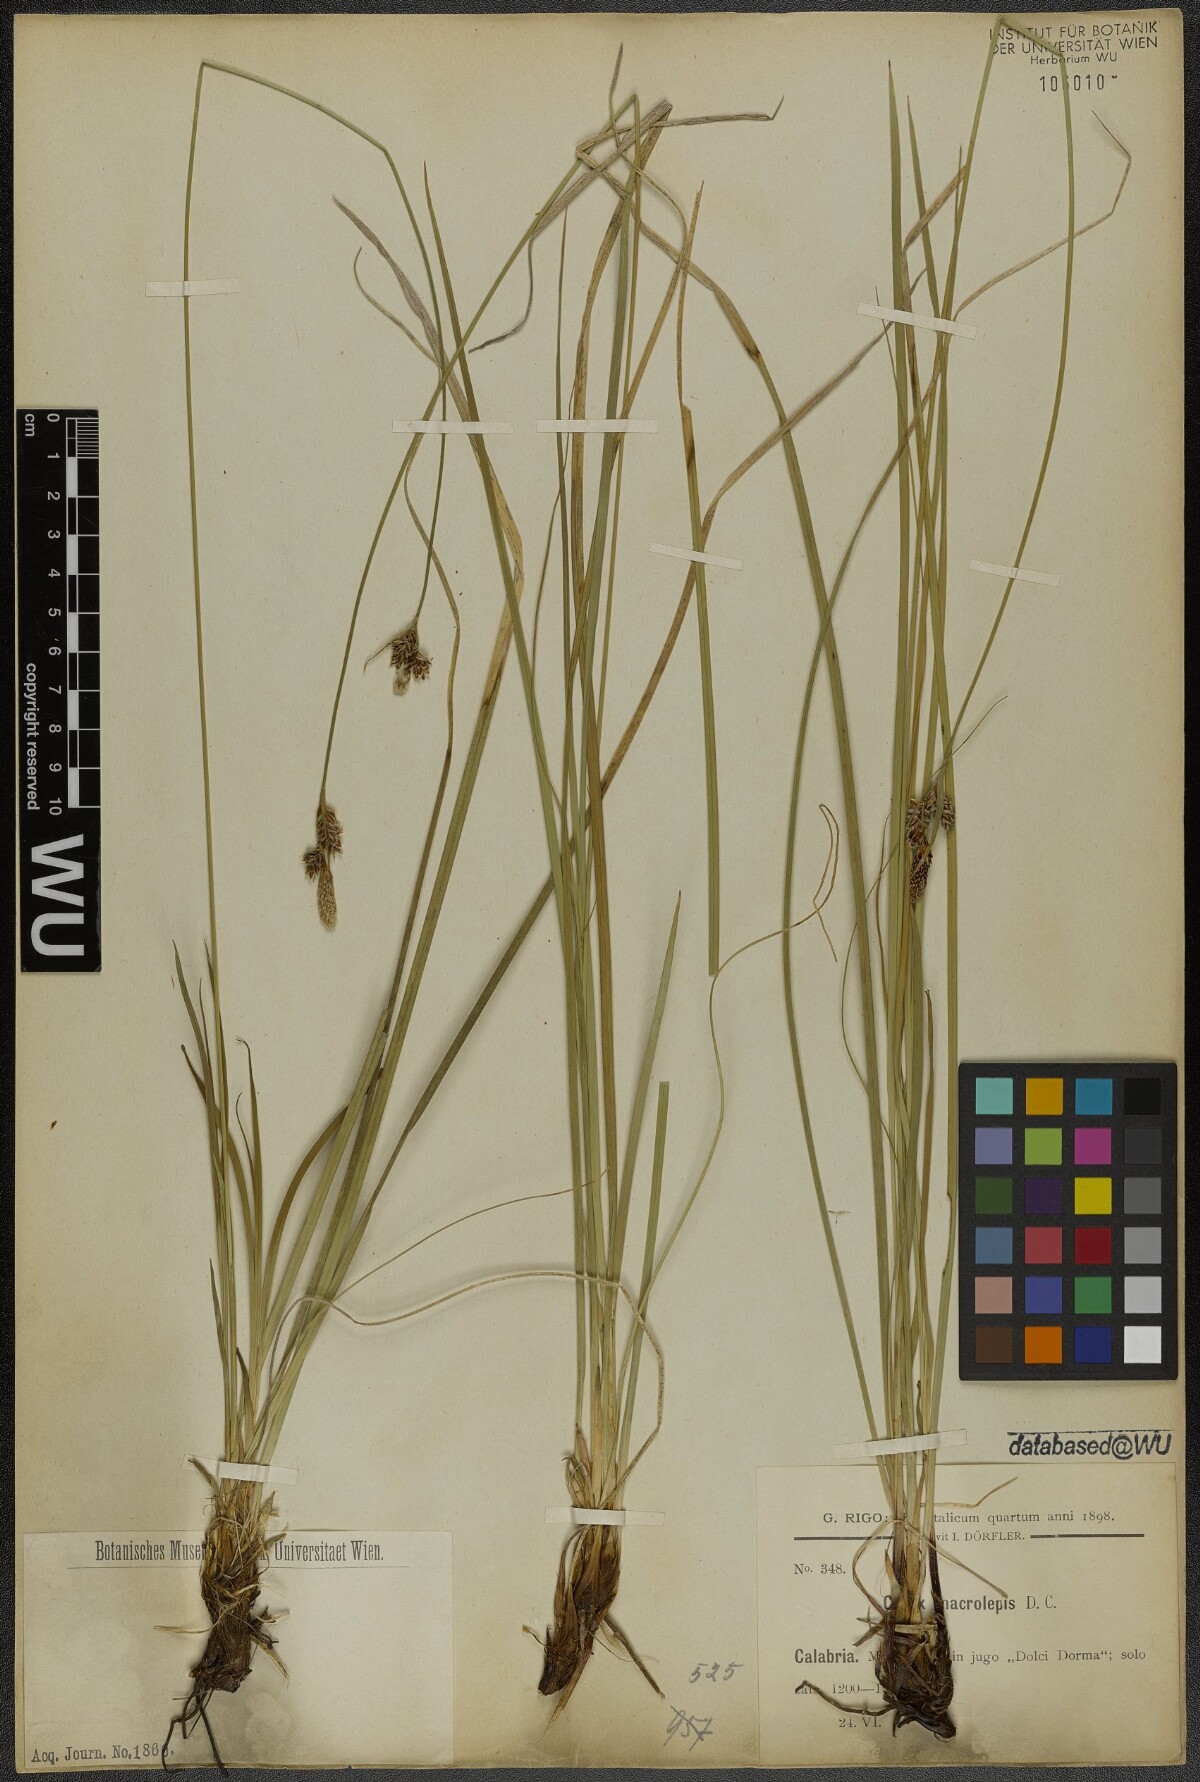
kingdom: Plantae
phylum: Tracheophyta
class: Liliopsida
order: Poales
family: Cyperaceae
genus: Carex
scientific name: Carex macrolepis
